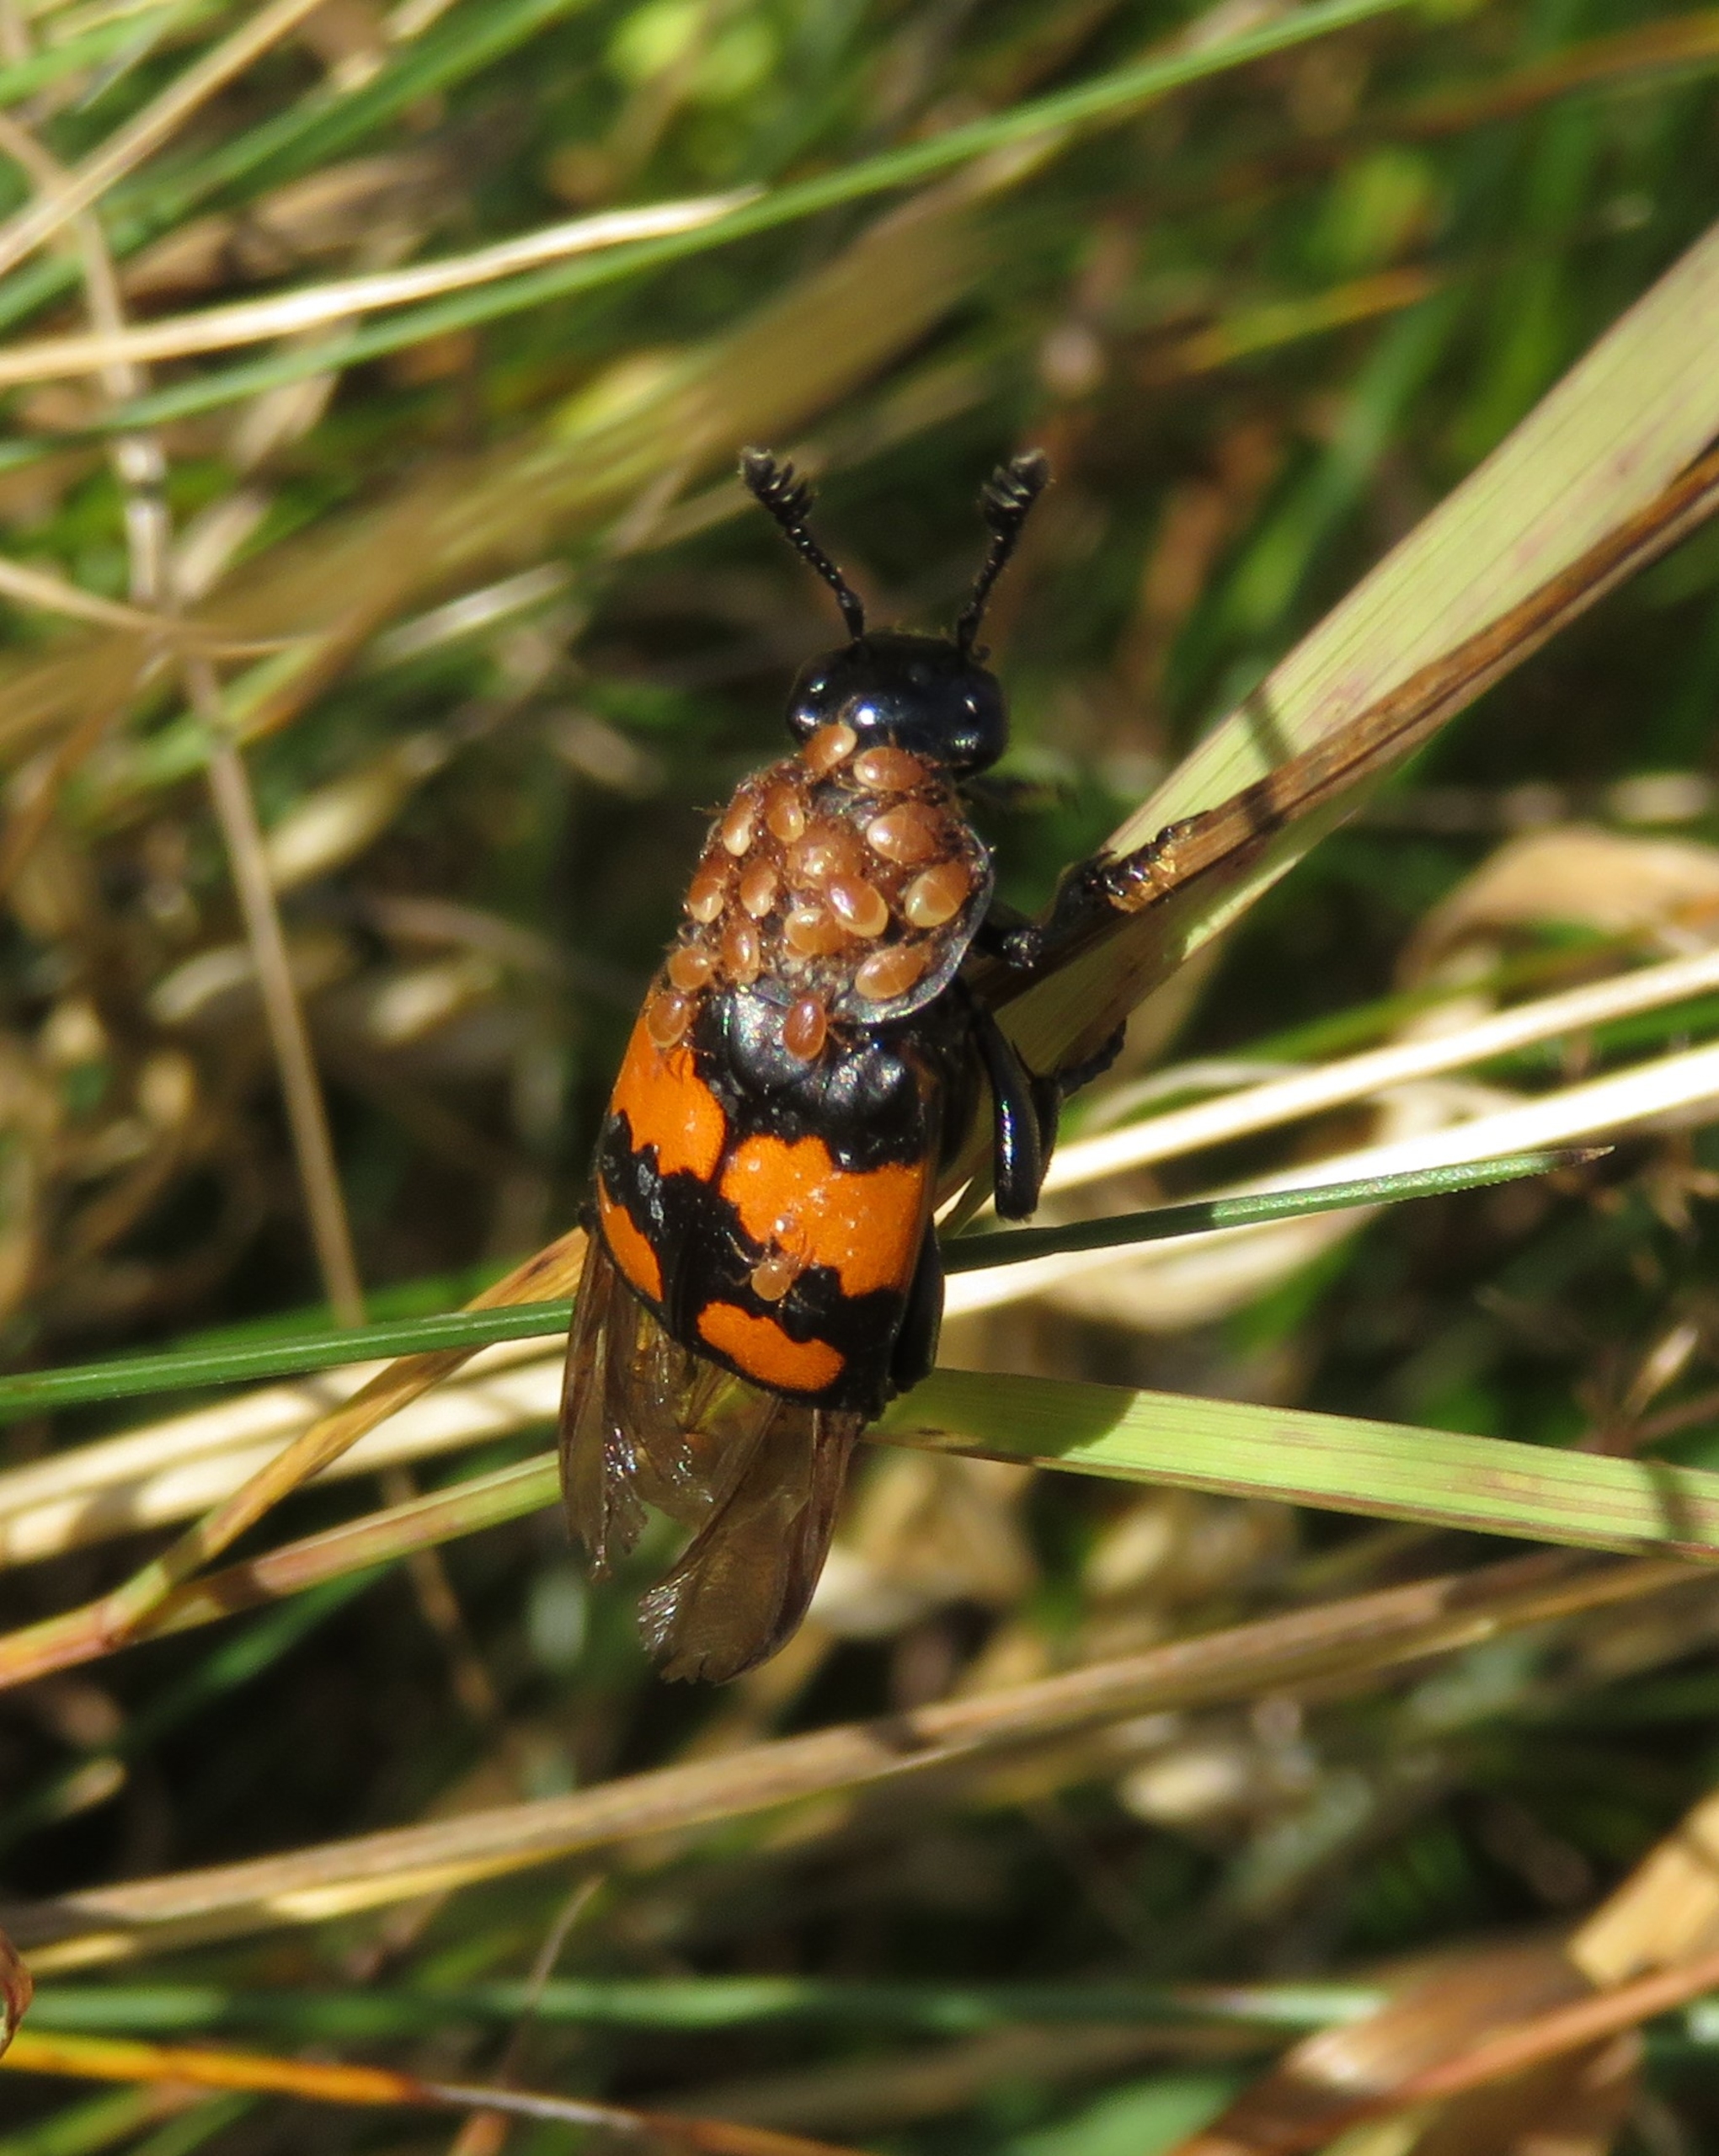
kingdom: Animalia
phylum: Arthropoda
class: Insecta
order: Coleoptera
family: Staphylinidae
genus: Nicrophorus
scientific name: Nicrophorus vespilloides
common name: Sortkøllet ådselgraver
